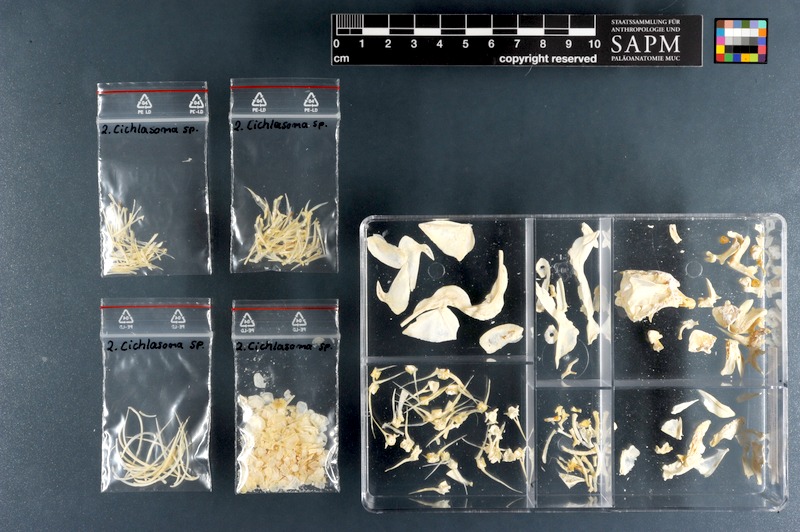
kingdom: Animalia
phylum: Chordata
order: Perciformes
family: Cichlidae
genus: Cichlasoma
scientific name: Cichlasoma
